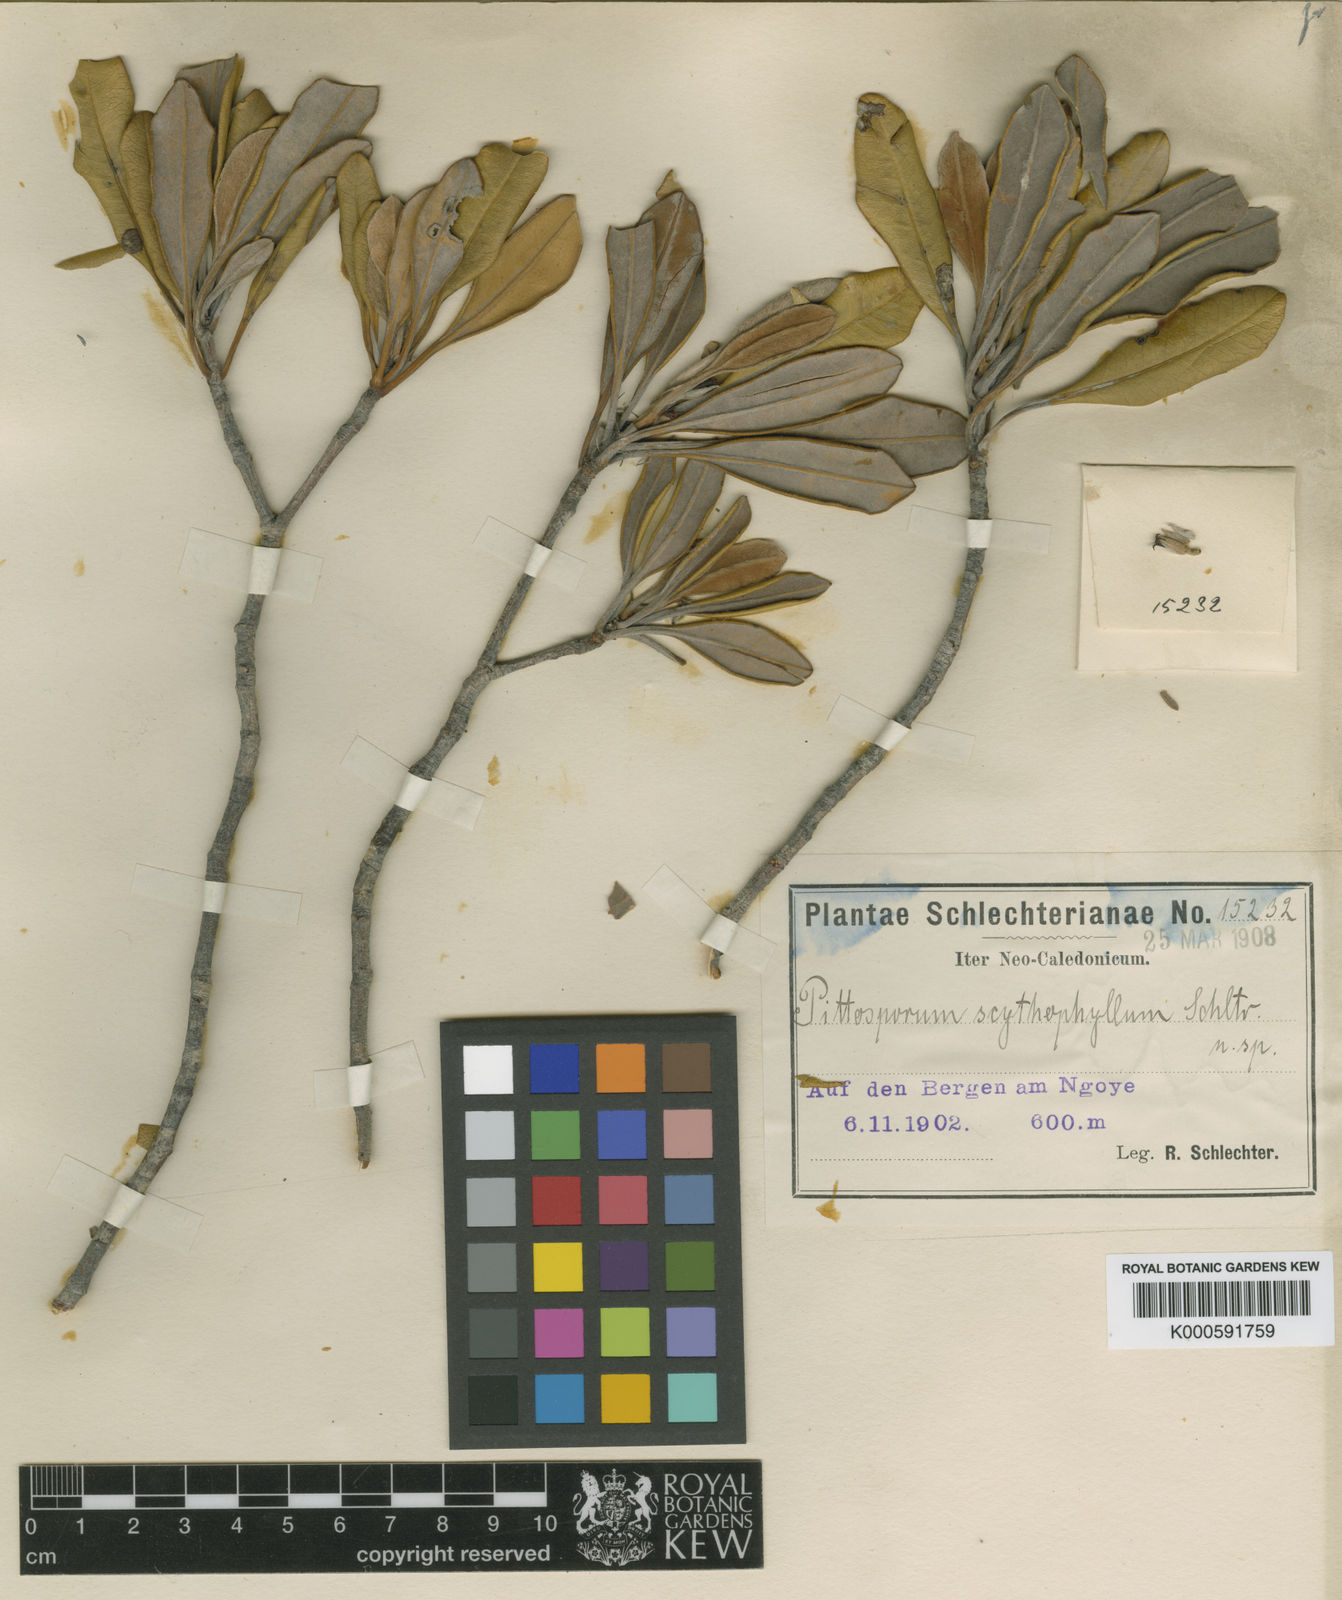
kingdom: Plantae
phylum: Tracheophyta
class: Magnoliopsida
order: Apiales
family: Pittosporaceae
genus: Pittosporum
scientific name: Pittosporum scythophyllum
